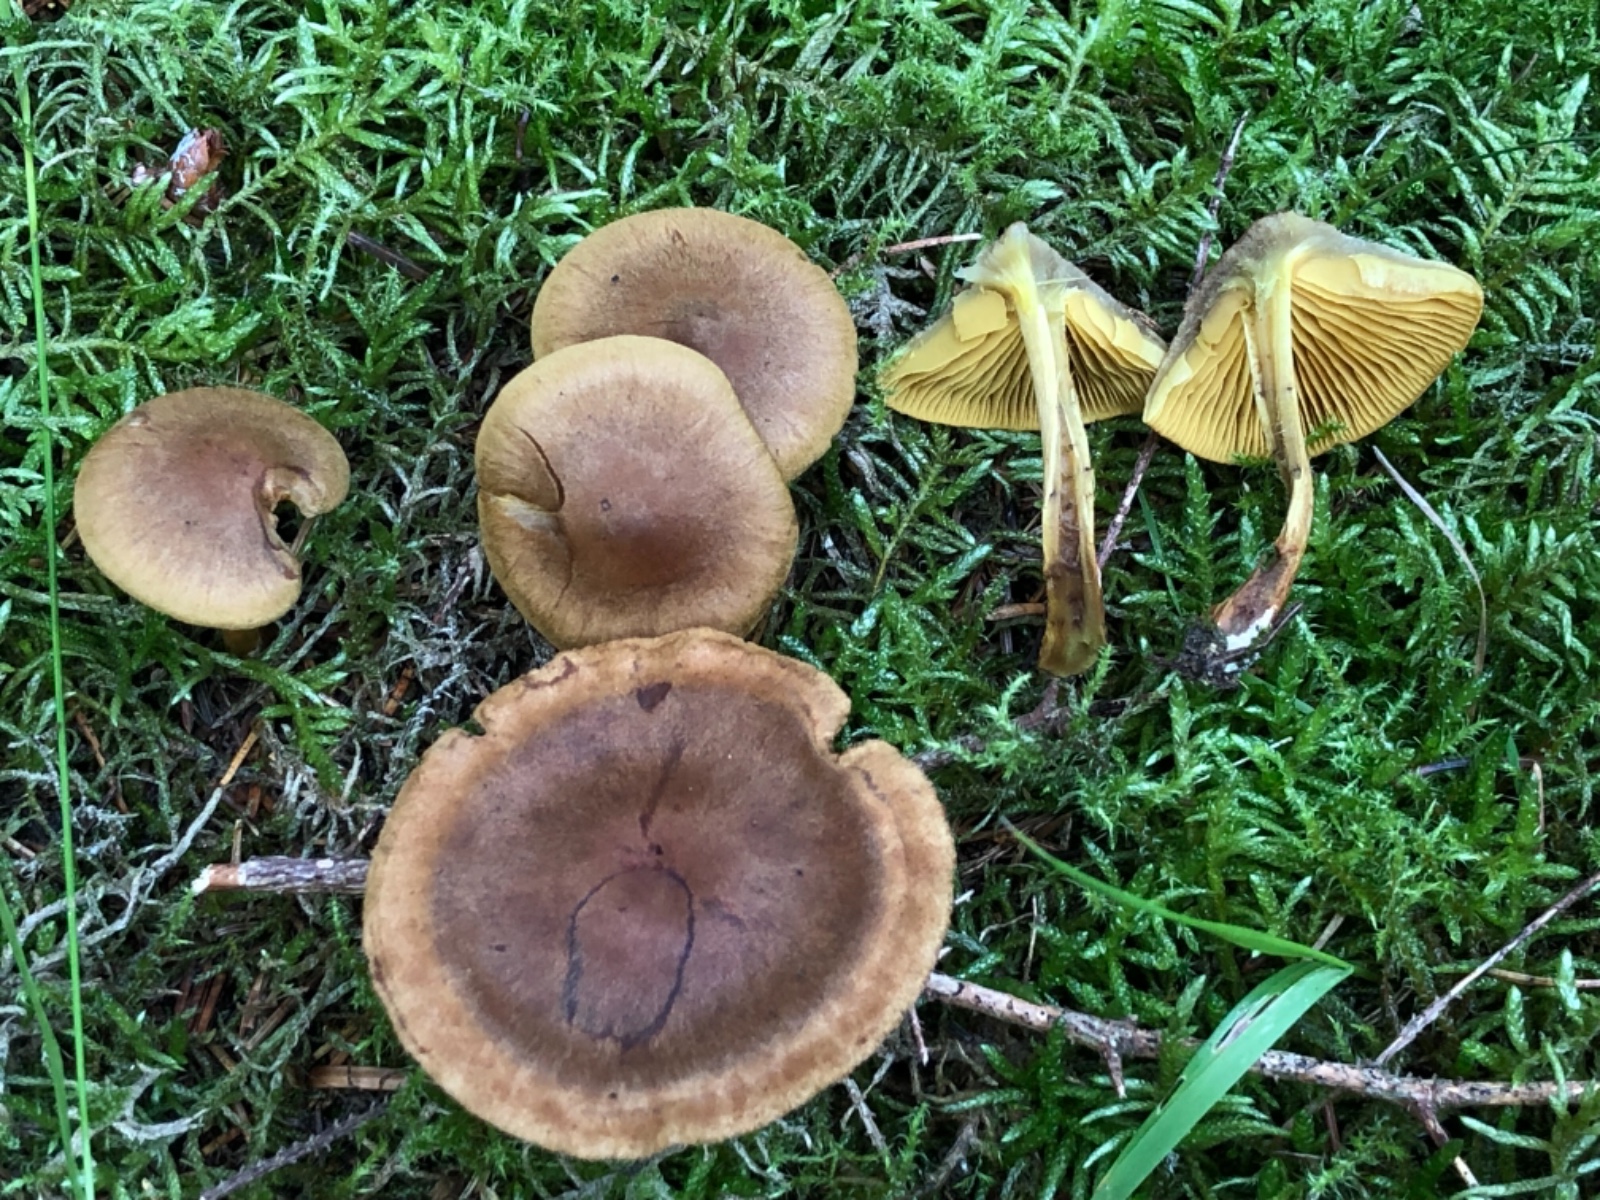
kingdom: Fungi
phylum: Basidiomycota
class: Agaricomycetes
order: Agaricales
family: Cortinariaceae
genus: Cortinarius
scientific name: Cortinarius malicorius
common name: grønkødet slørhat
